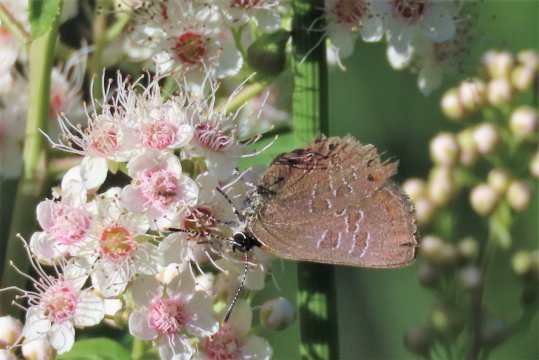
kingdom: Animalia
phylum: Arthropoda
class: Insecta
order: Lepidoptera
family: Lycaenidae
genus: Satyrium
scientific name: Satyrium liparops
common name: Striped Hairstreak
